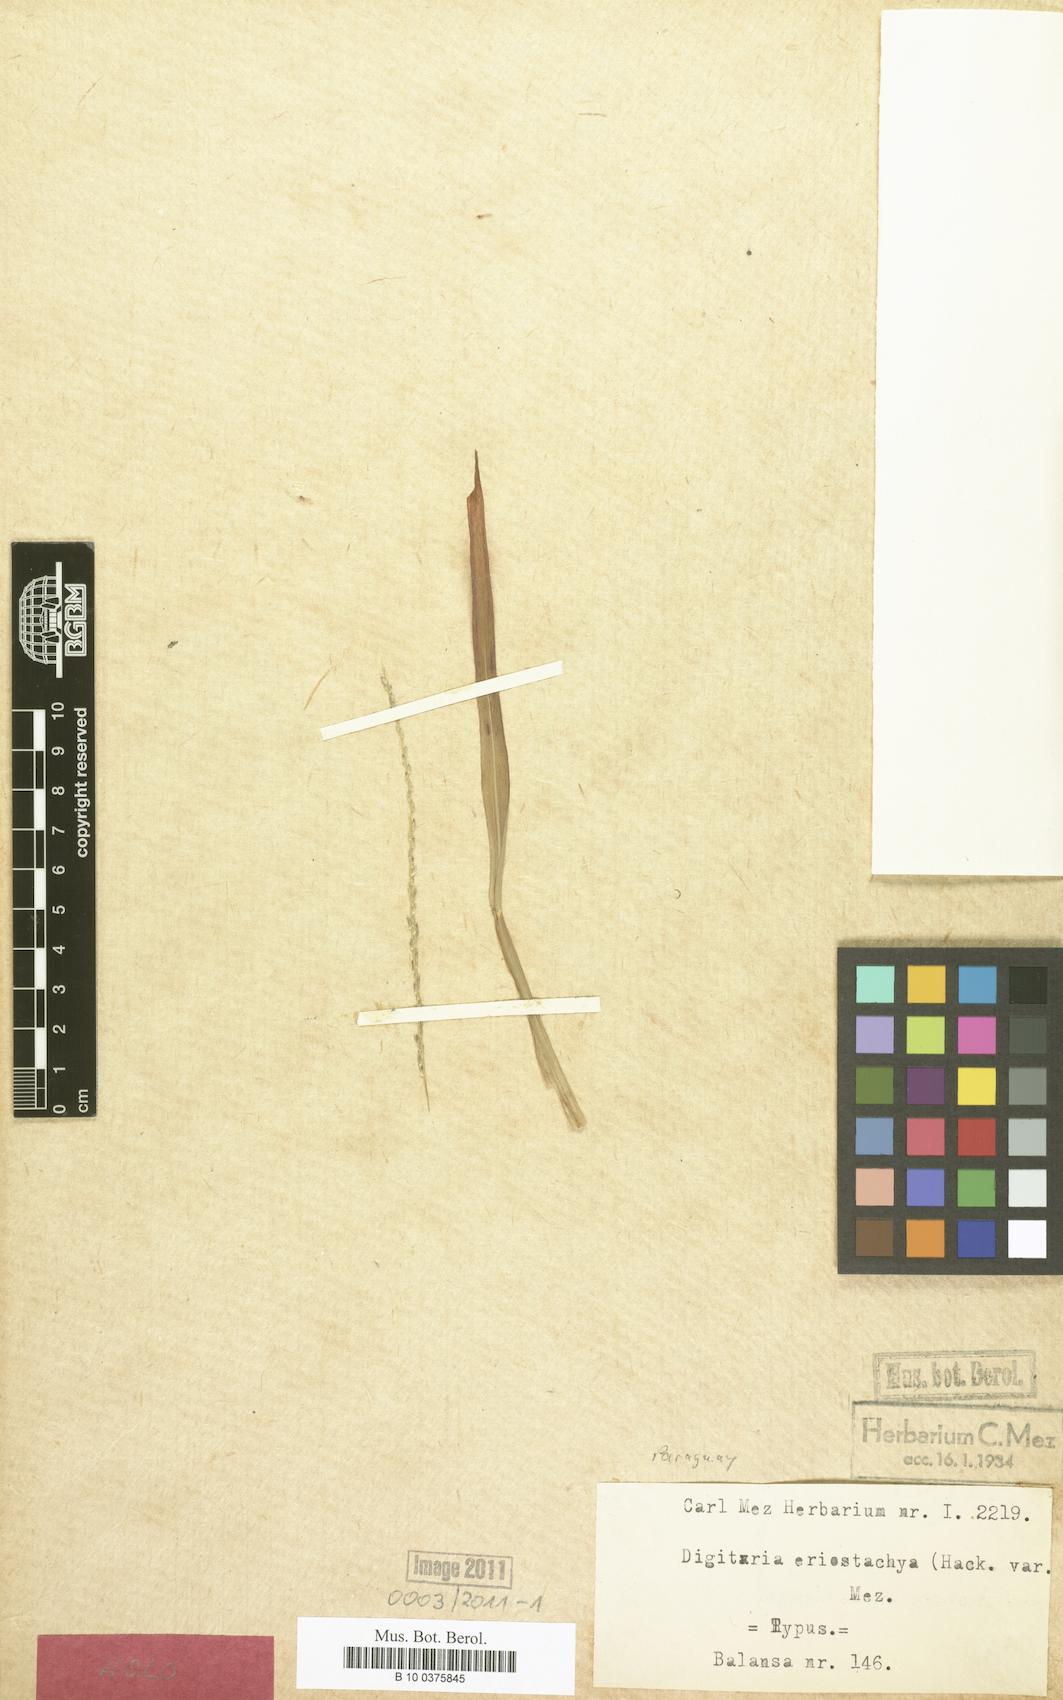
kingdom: Plantae
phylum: Tracheophyta
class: Liliopsida
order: Poales
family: Poaceae
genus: Digitaria
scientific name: Digitaria eriostachya
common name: Crabgrass
